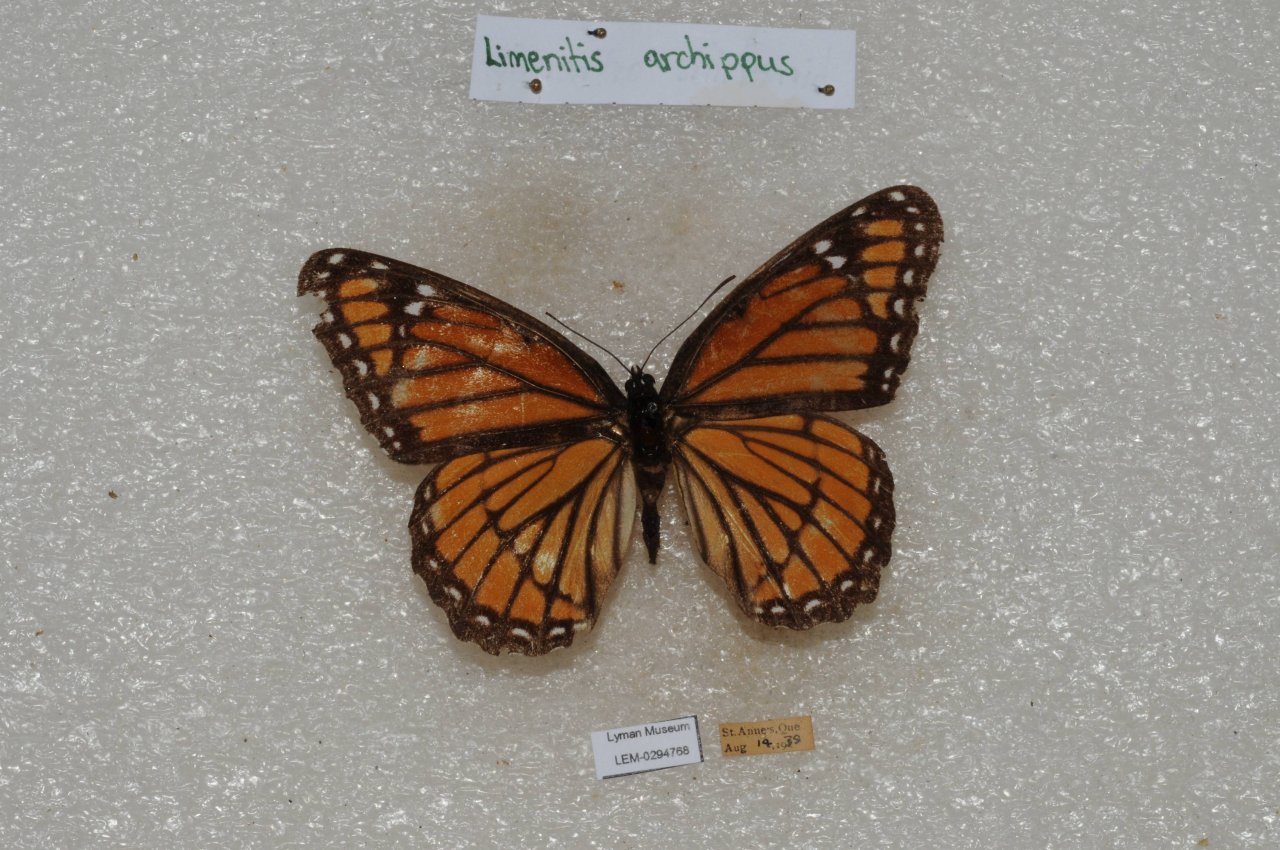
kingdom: Animalia
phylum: Arthropoda
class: Insecta
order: Lepidoptera
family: Nymphalidae
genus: Limenitis
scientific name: Limenitis archippus
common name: Viceroy
